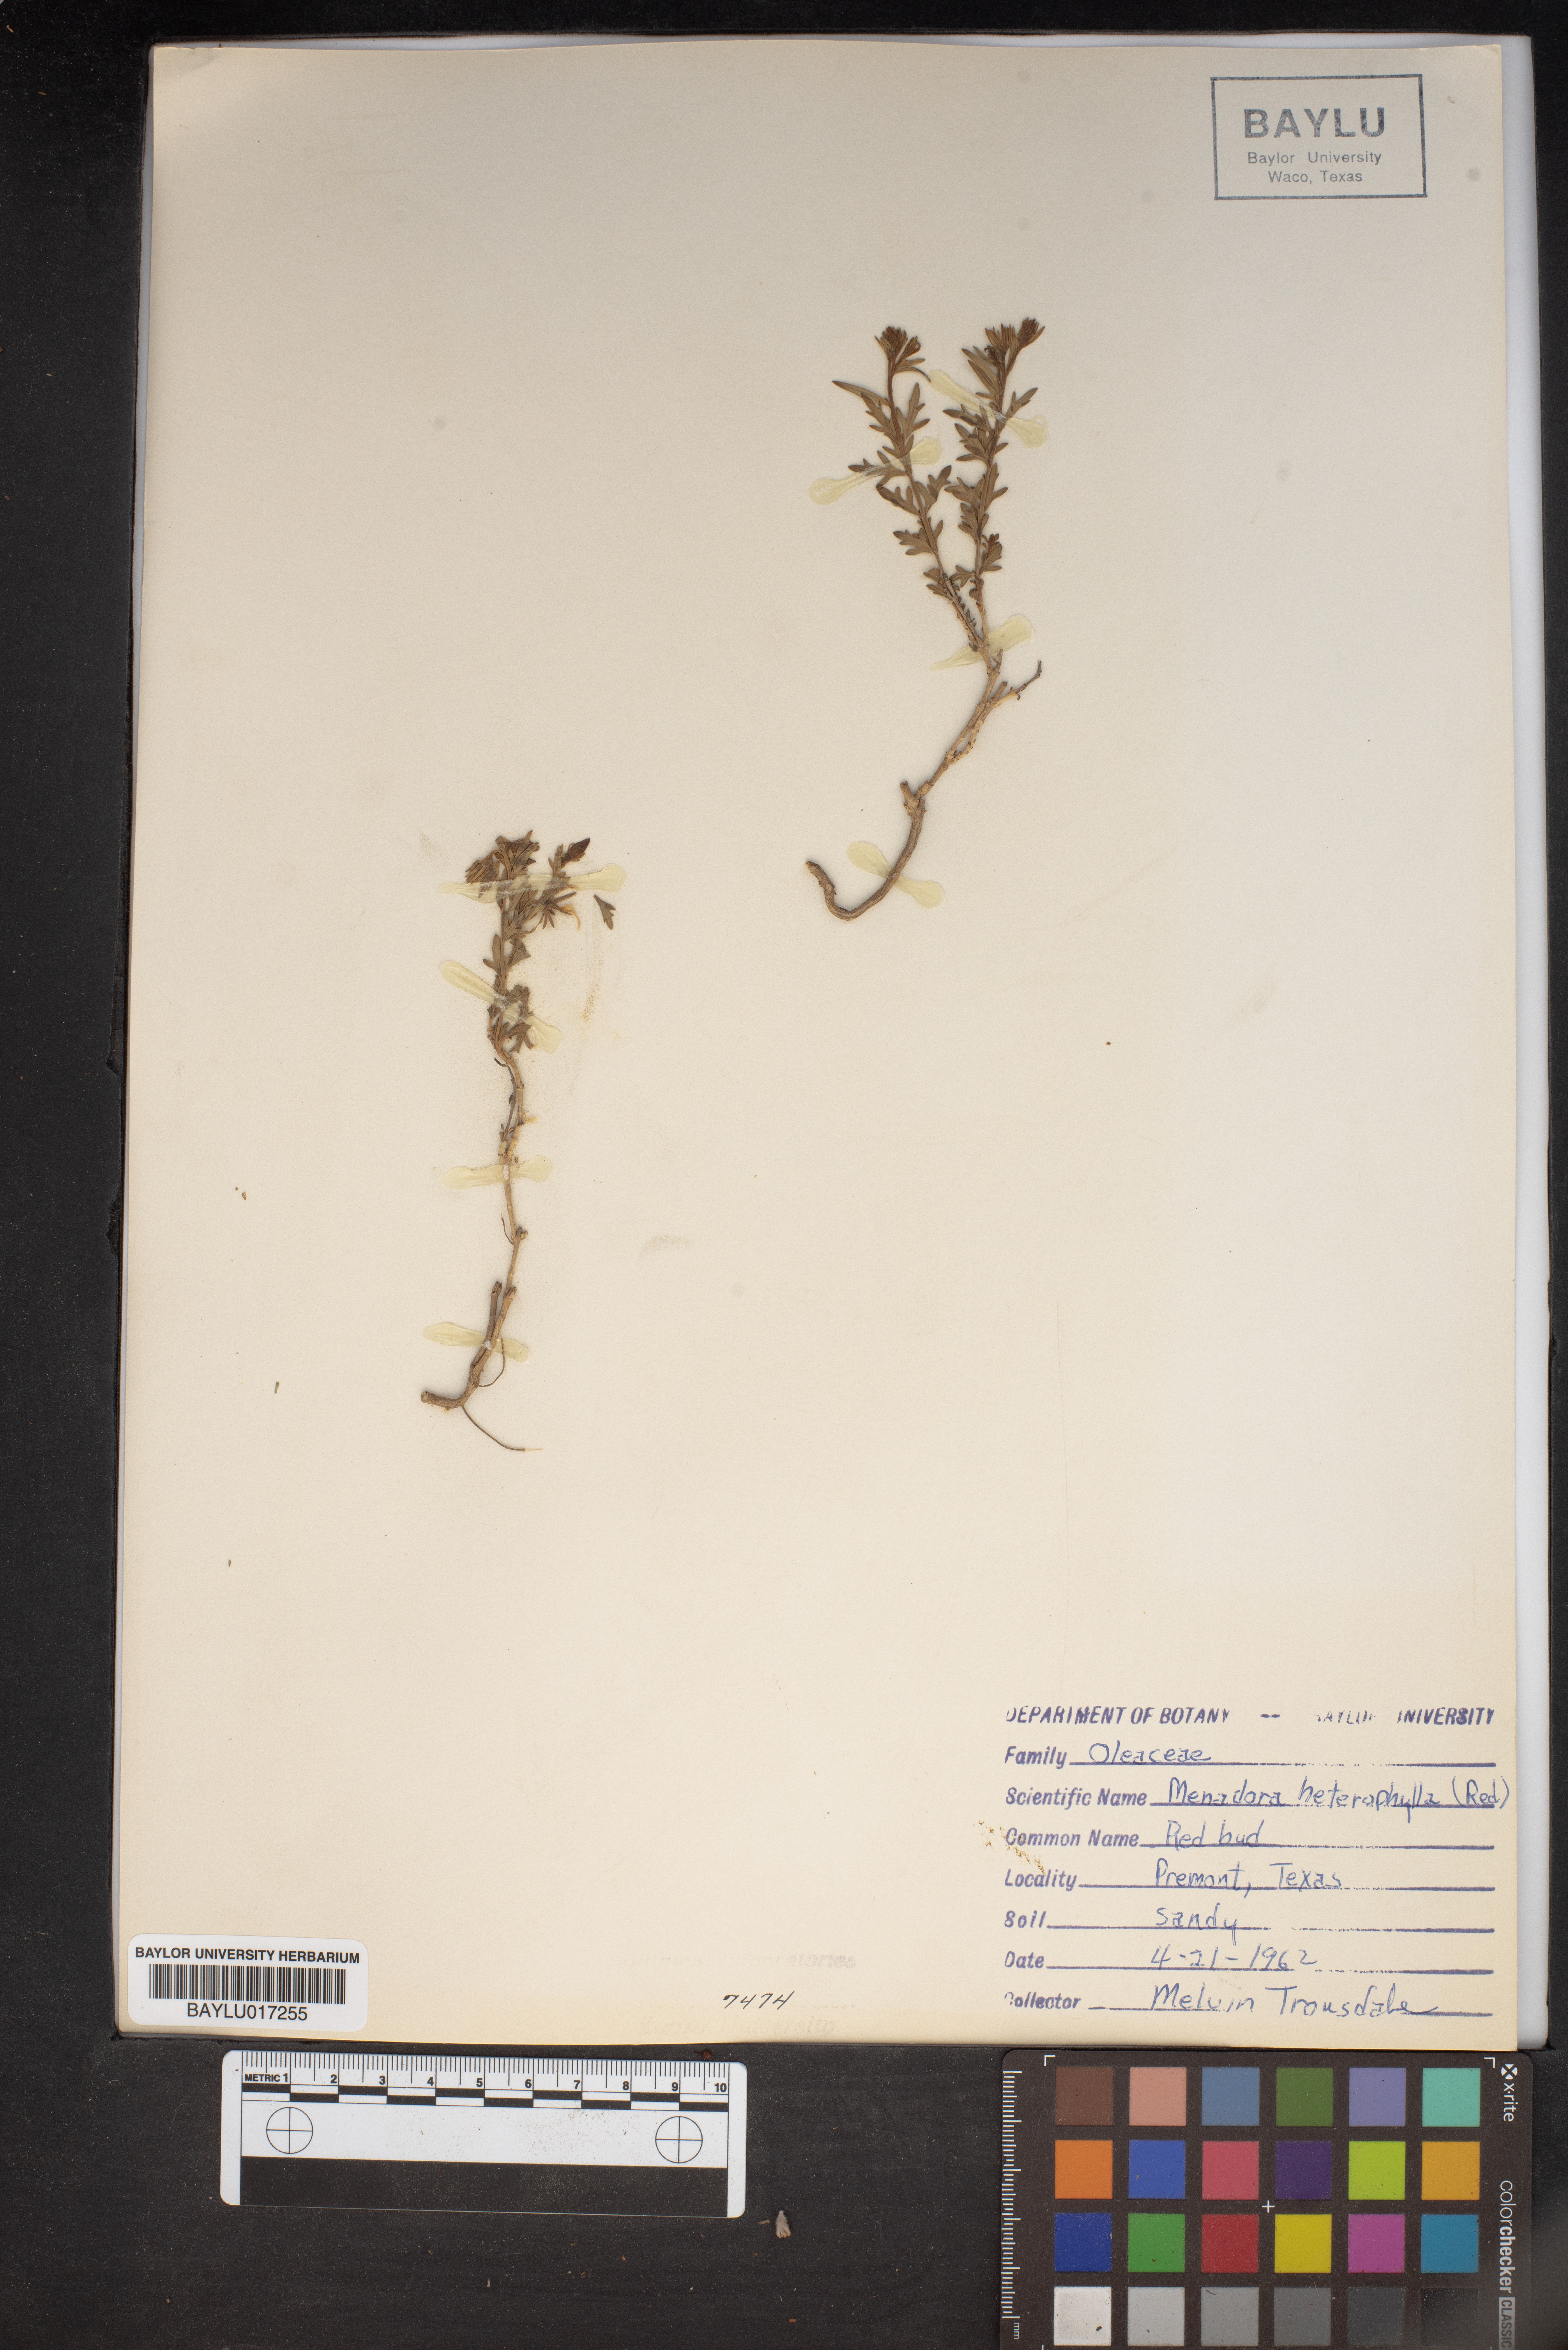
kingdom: Plantae
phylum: Tracheophyta
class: Magnoliopsida
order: Lamiales
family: Oleaceae
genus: Menodora
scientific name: Menodora heterophylla
